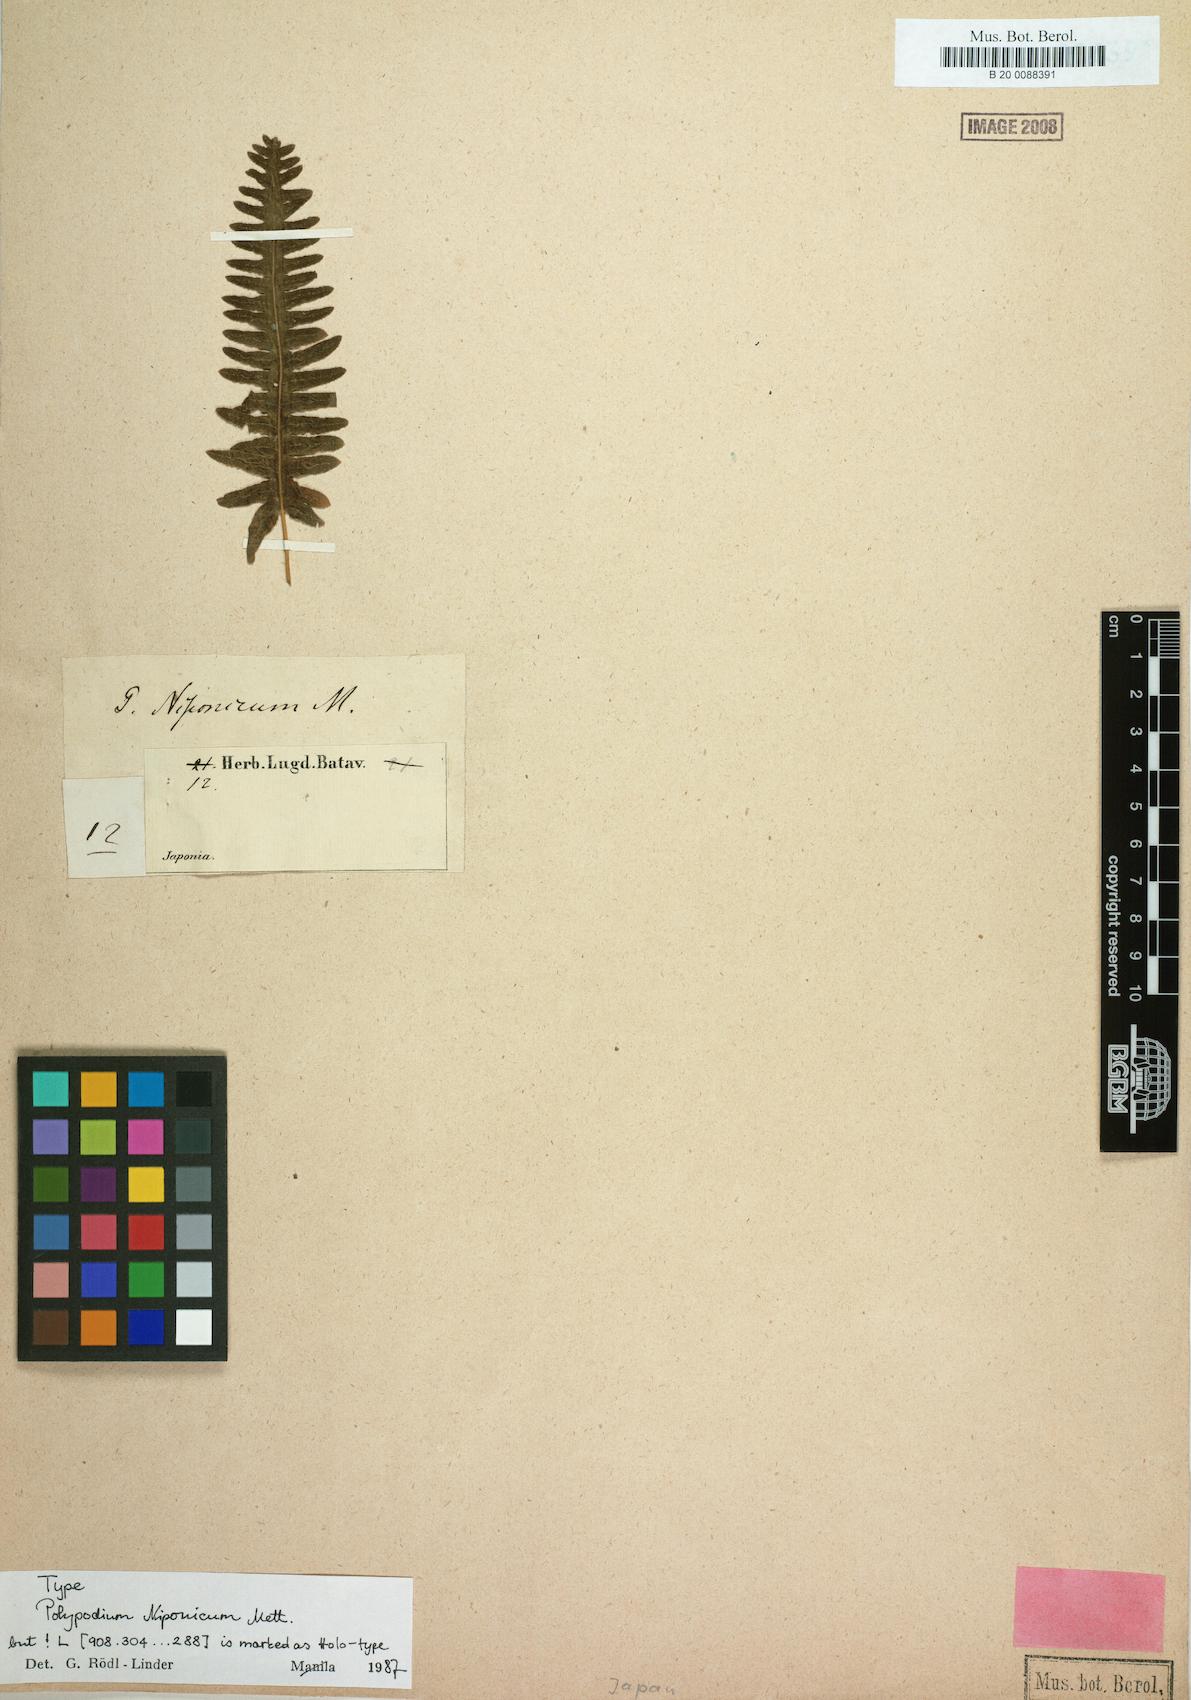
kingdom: Plantae
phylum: Tracheophyta
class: Polypodiopsida
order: Polypodiales
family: Polypodiaceae
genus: Goniophlebium
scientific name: Goniophlebium niponicum
